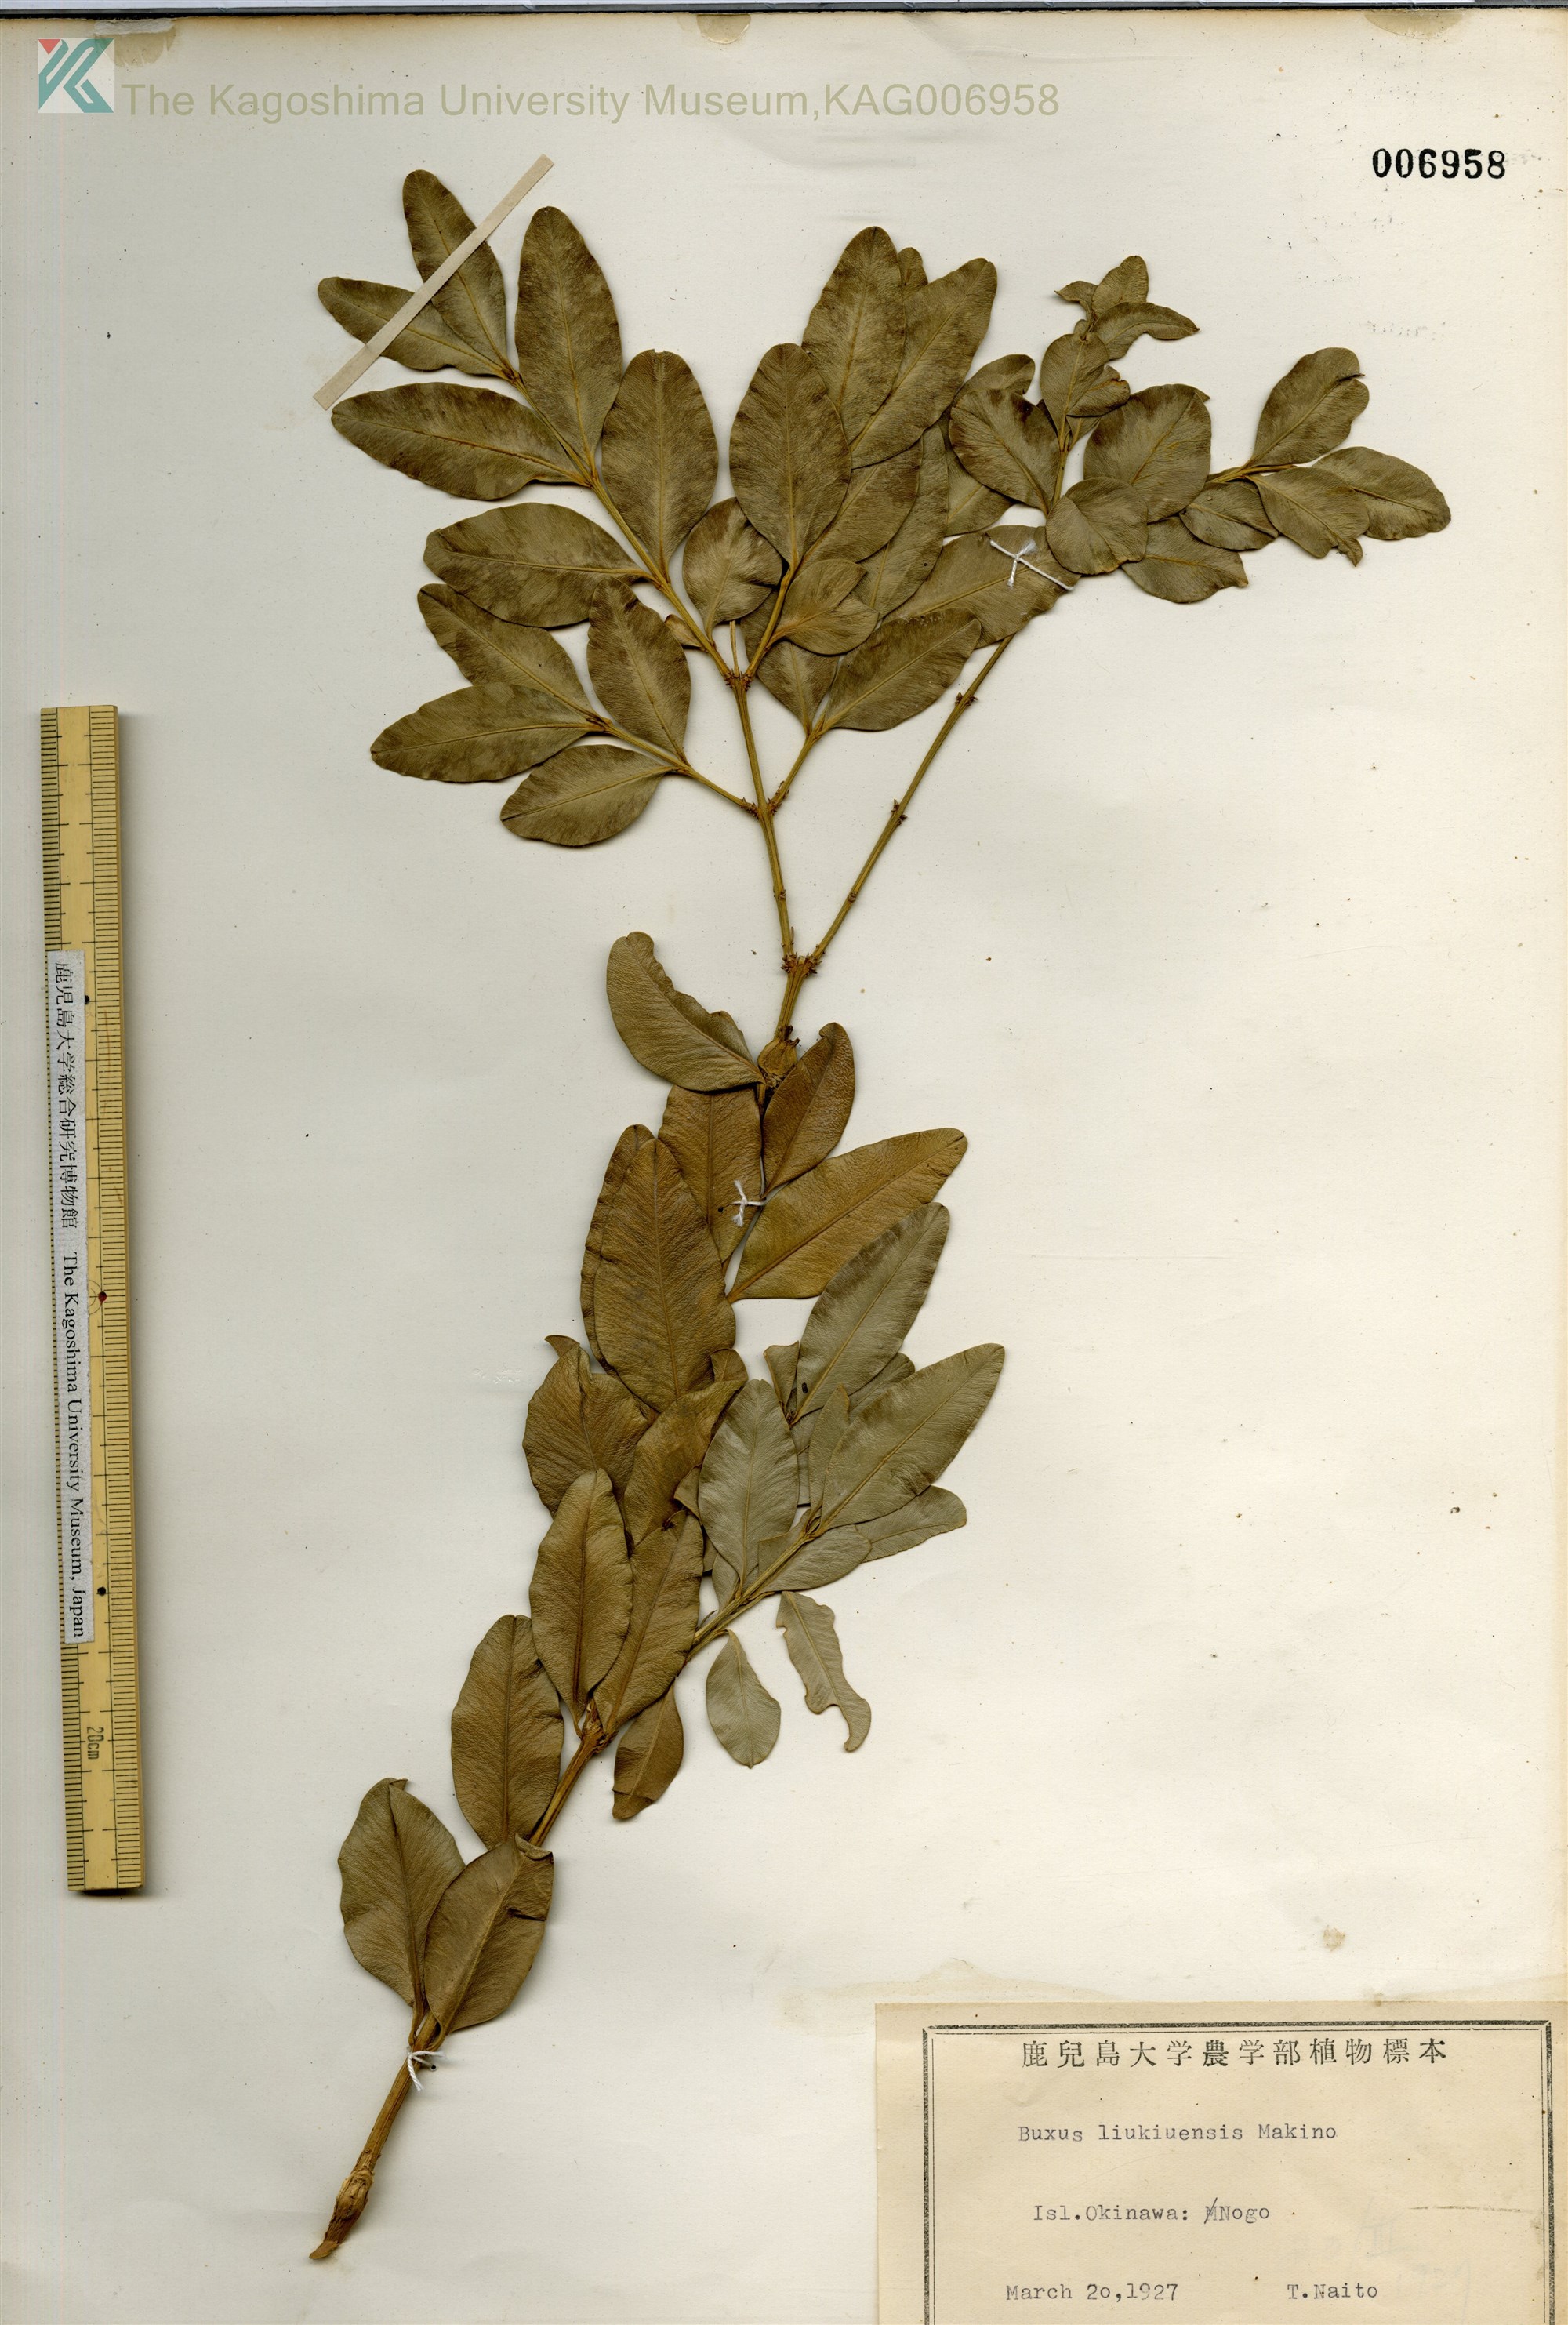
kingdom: Plantae
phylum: Tracheophyta
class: Magnoliopsida
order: Buxales
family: Buxaceae
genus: Buxus
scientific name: Buxus liukiuensis
